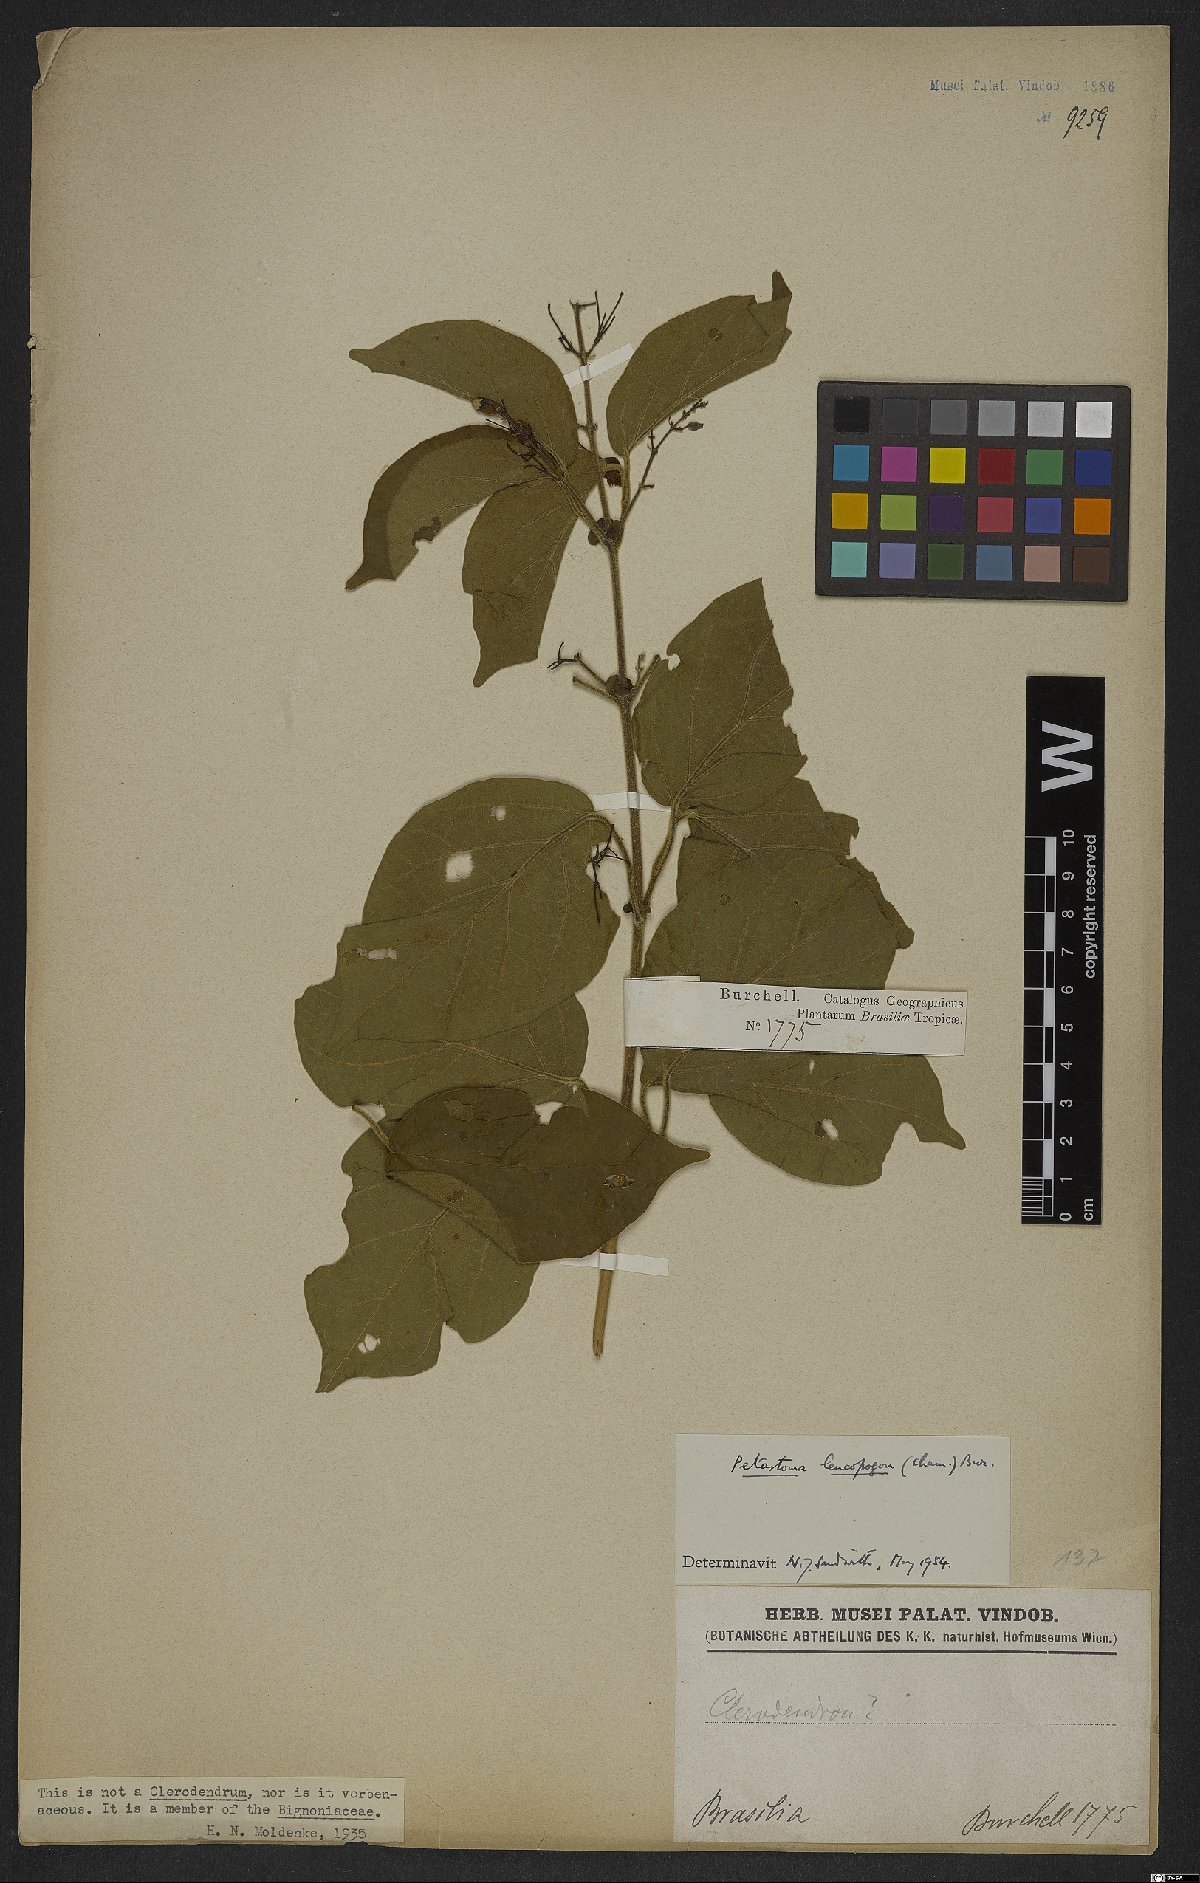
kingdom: Plantae
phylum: Tracheophyta
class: Magnoliopsida
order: Lamiales
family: Bignoniaceae
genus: Fridericia
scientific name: Fridericia leucopogon
